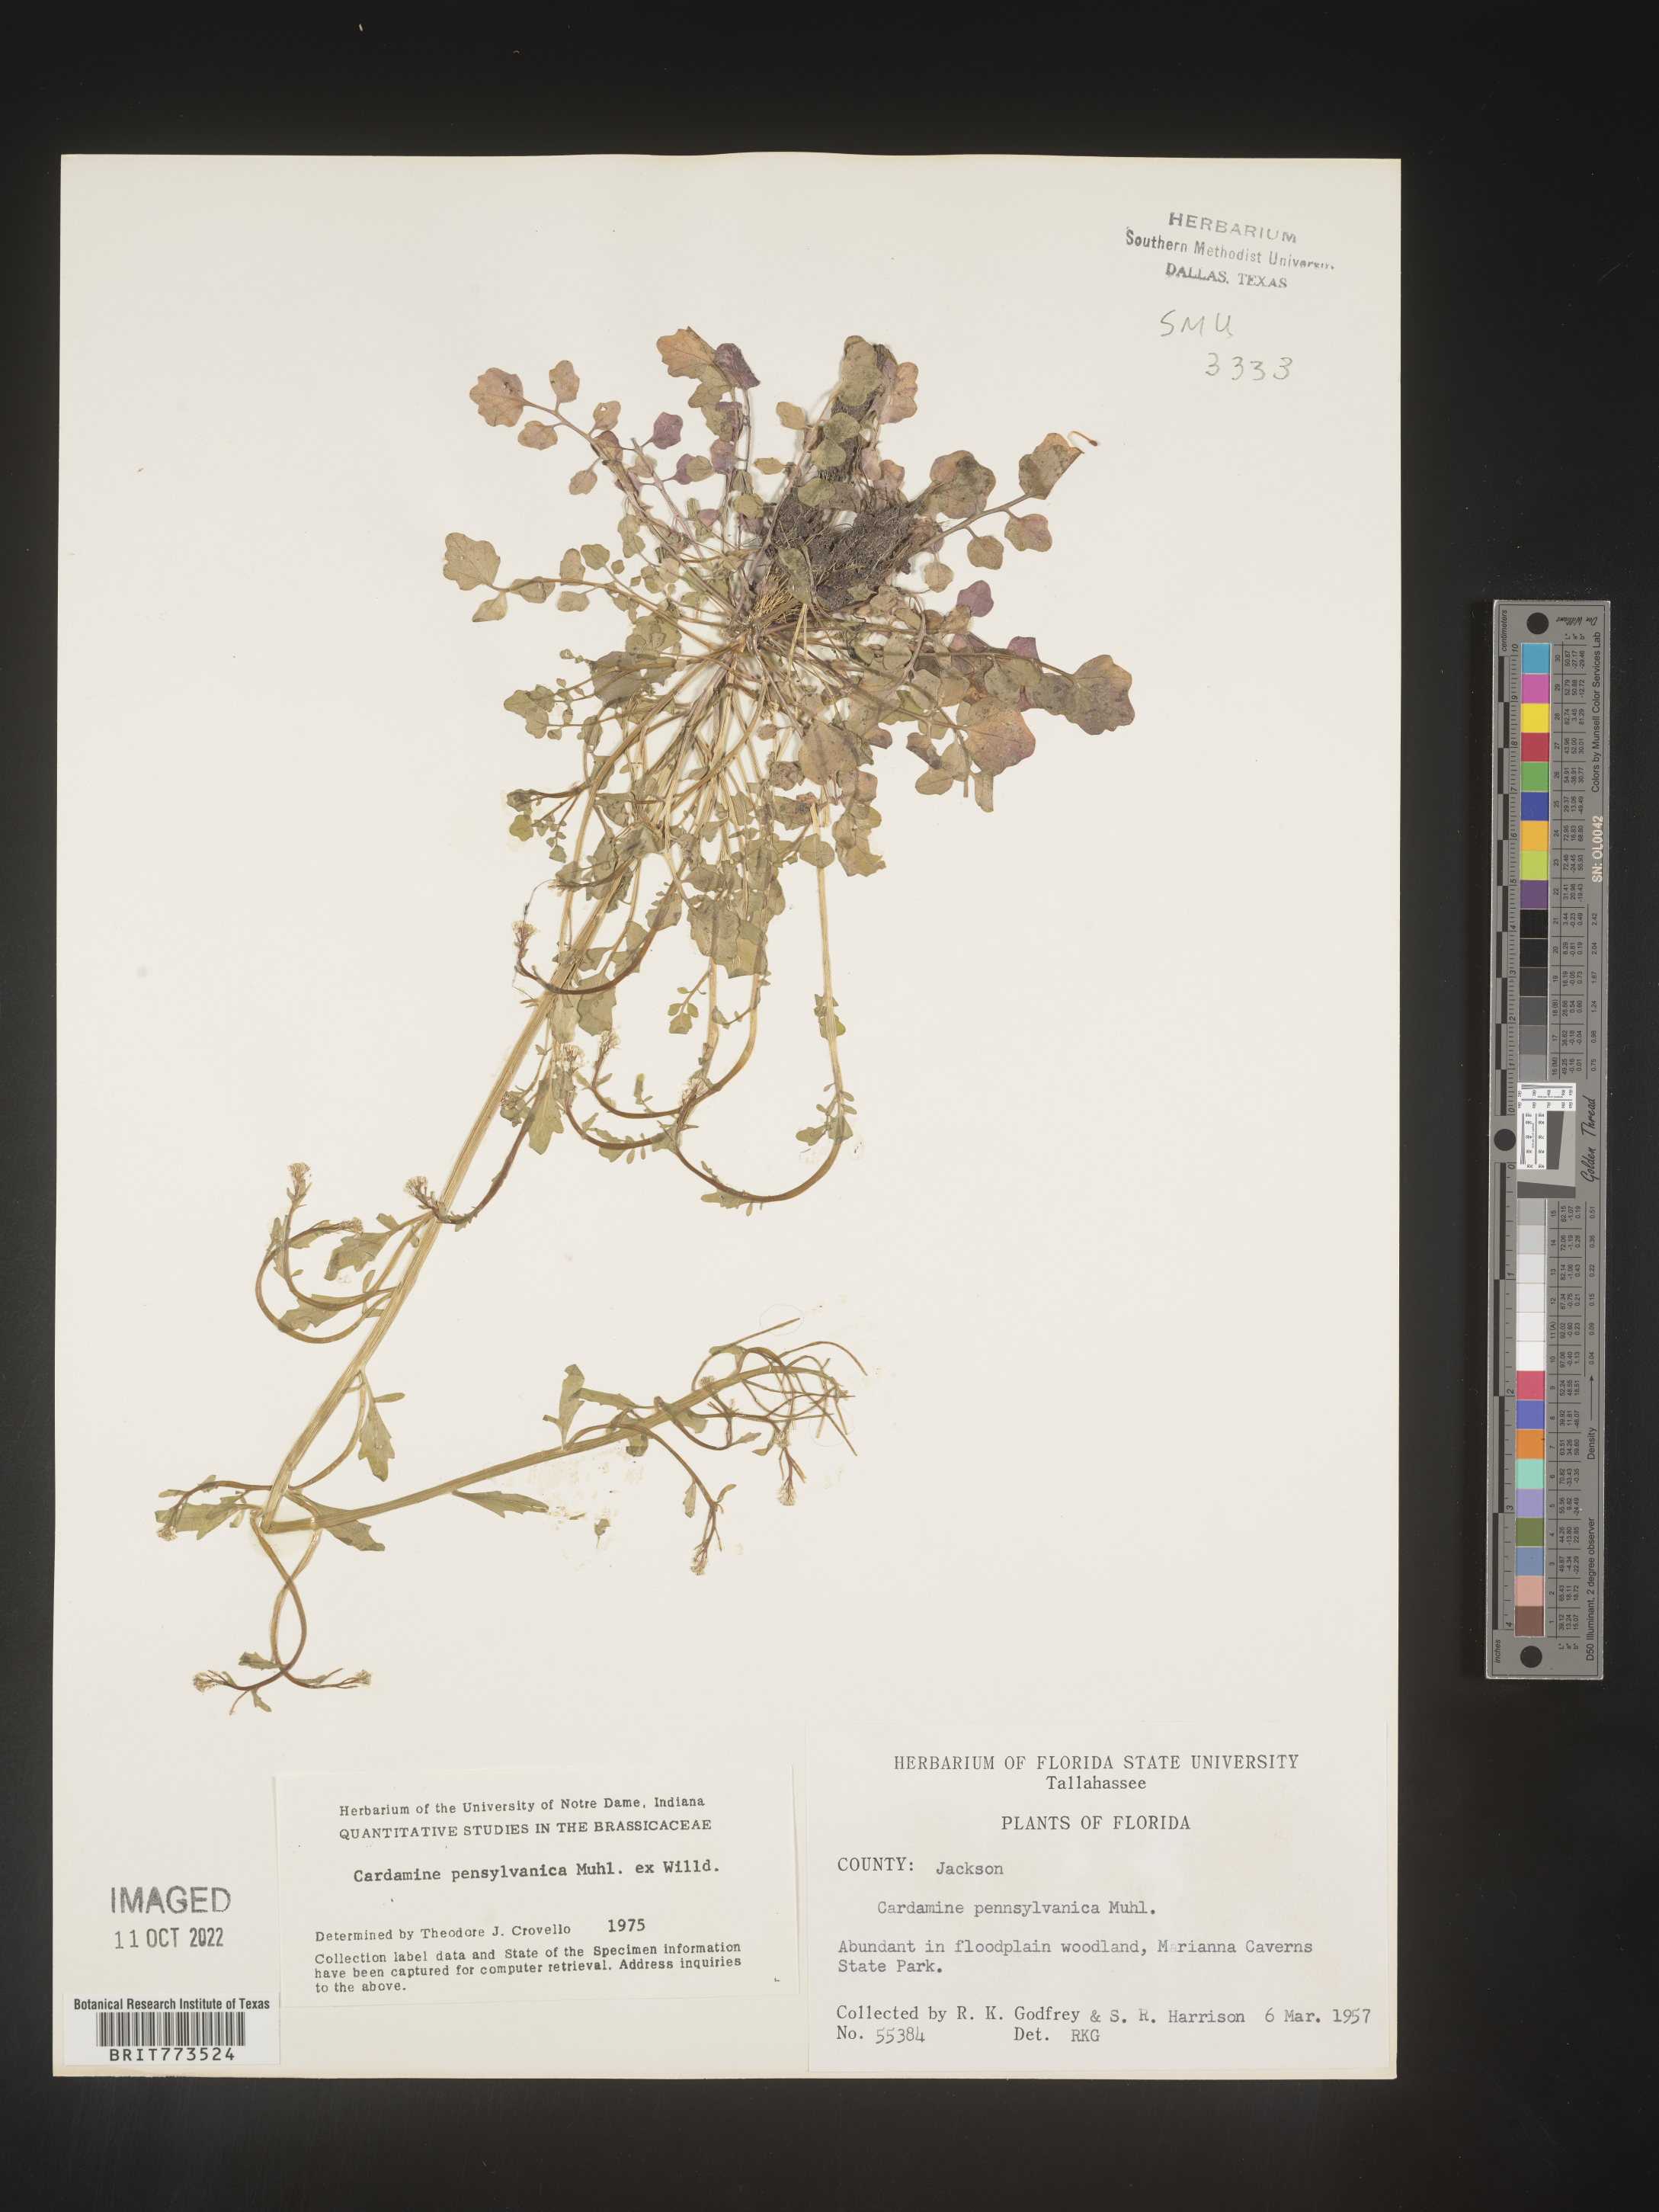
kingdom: Plantae
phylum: Tracheophyta
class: Magnoliopsida
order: Brassicales
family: Brassicaceae
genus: Cardamine
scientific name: Cardamine pensylvanica
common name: Pennsylvania bittercress
